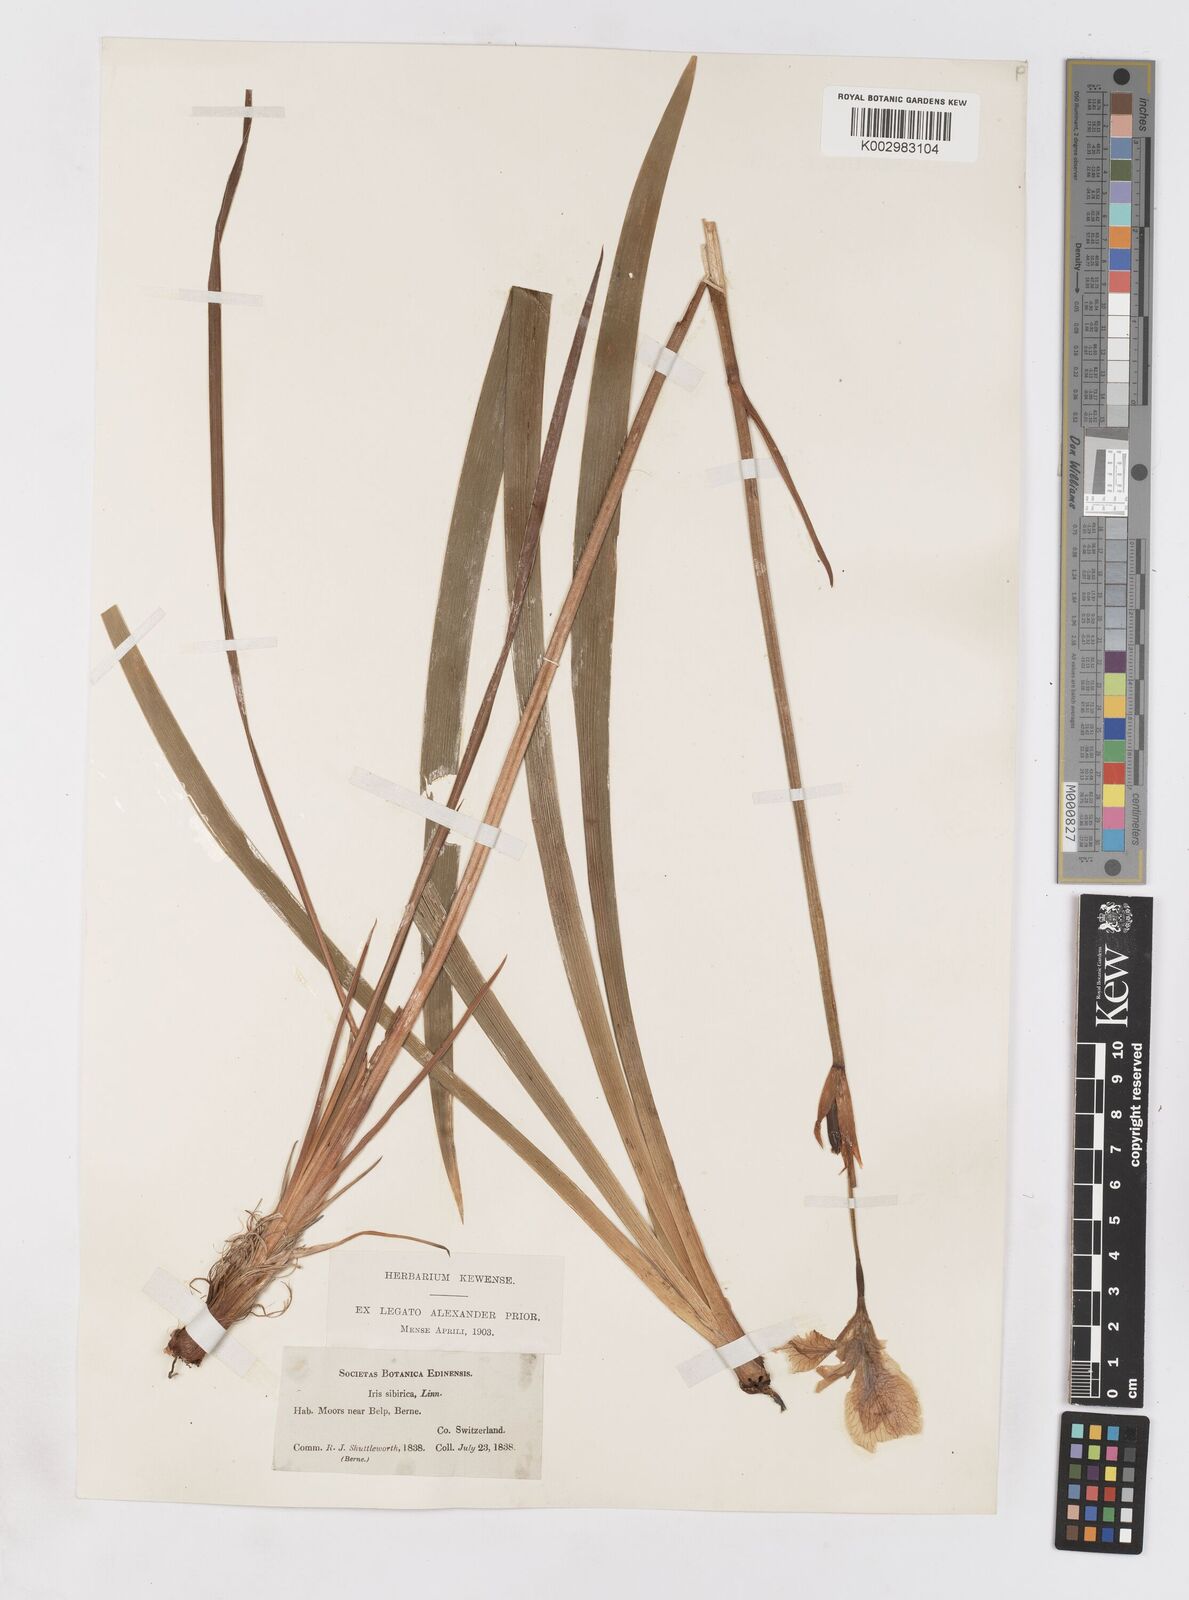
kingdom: Plantae
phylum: Tracheophyta
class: Liliopsida
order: Asparagales
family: Iridaceae
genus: Iris
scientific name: Iris sibirica
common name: Siberian iris
